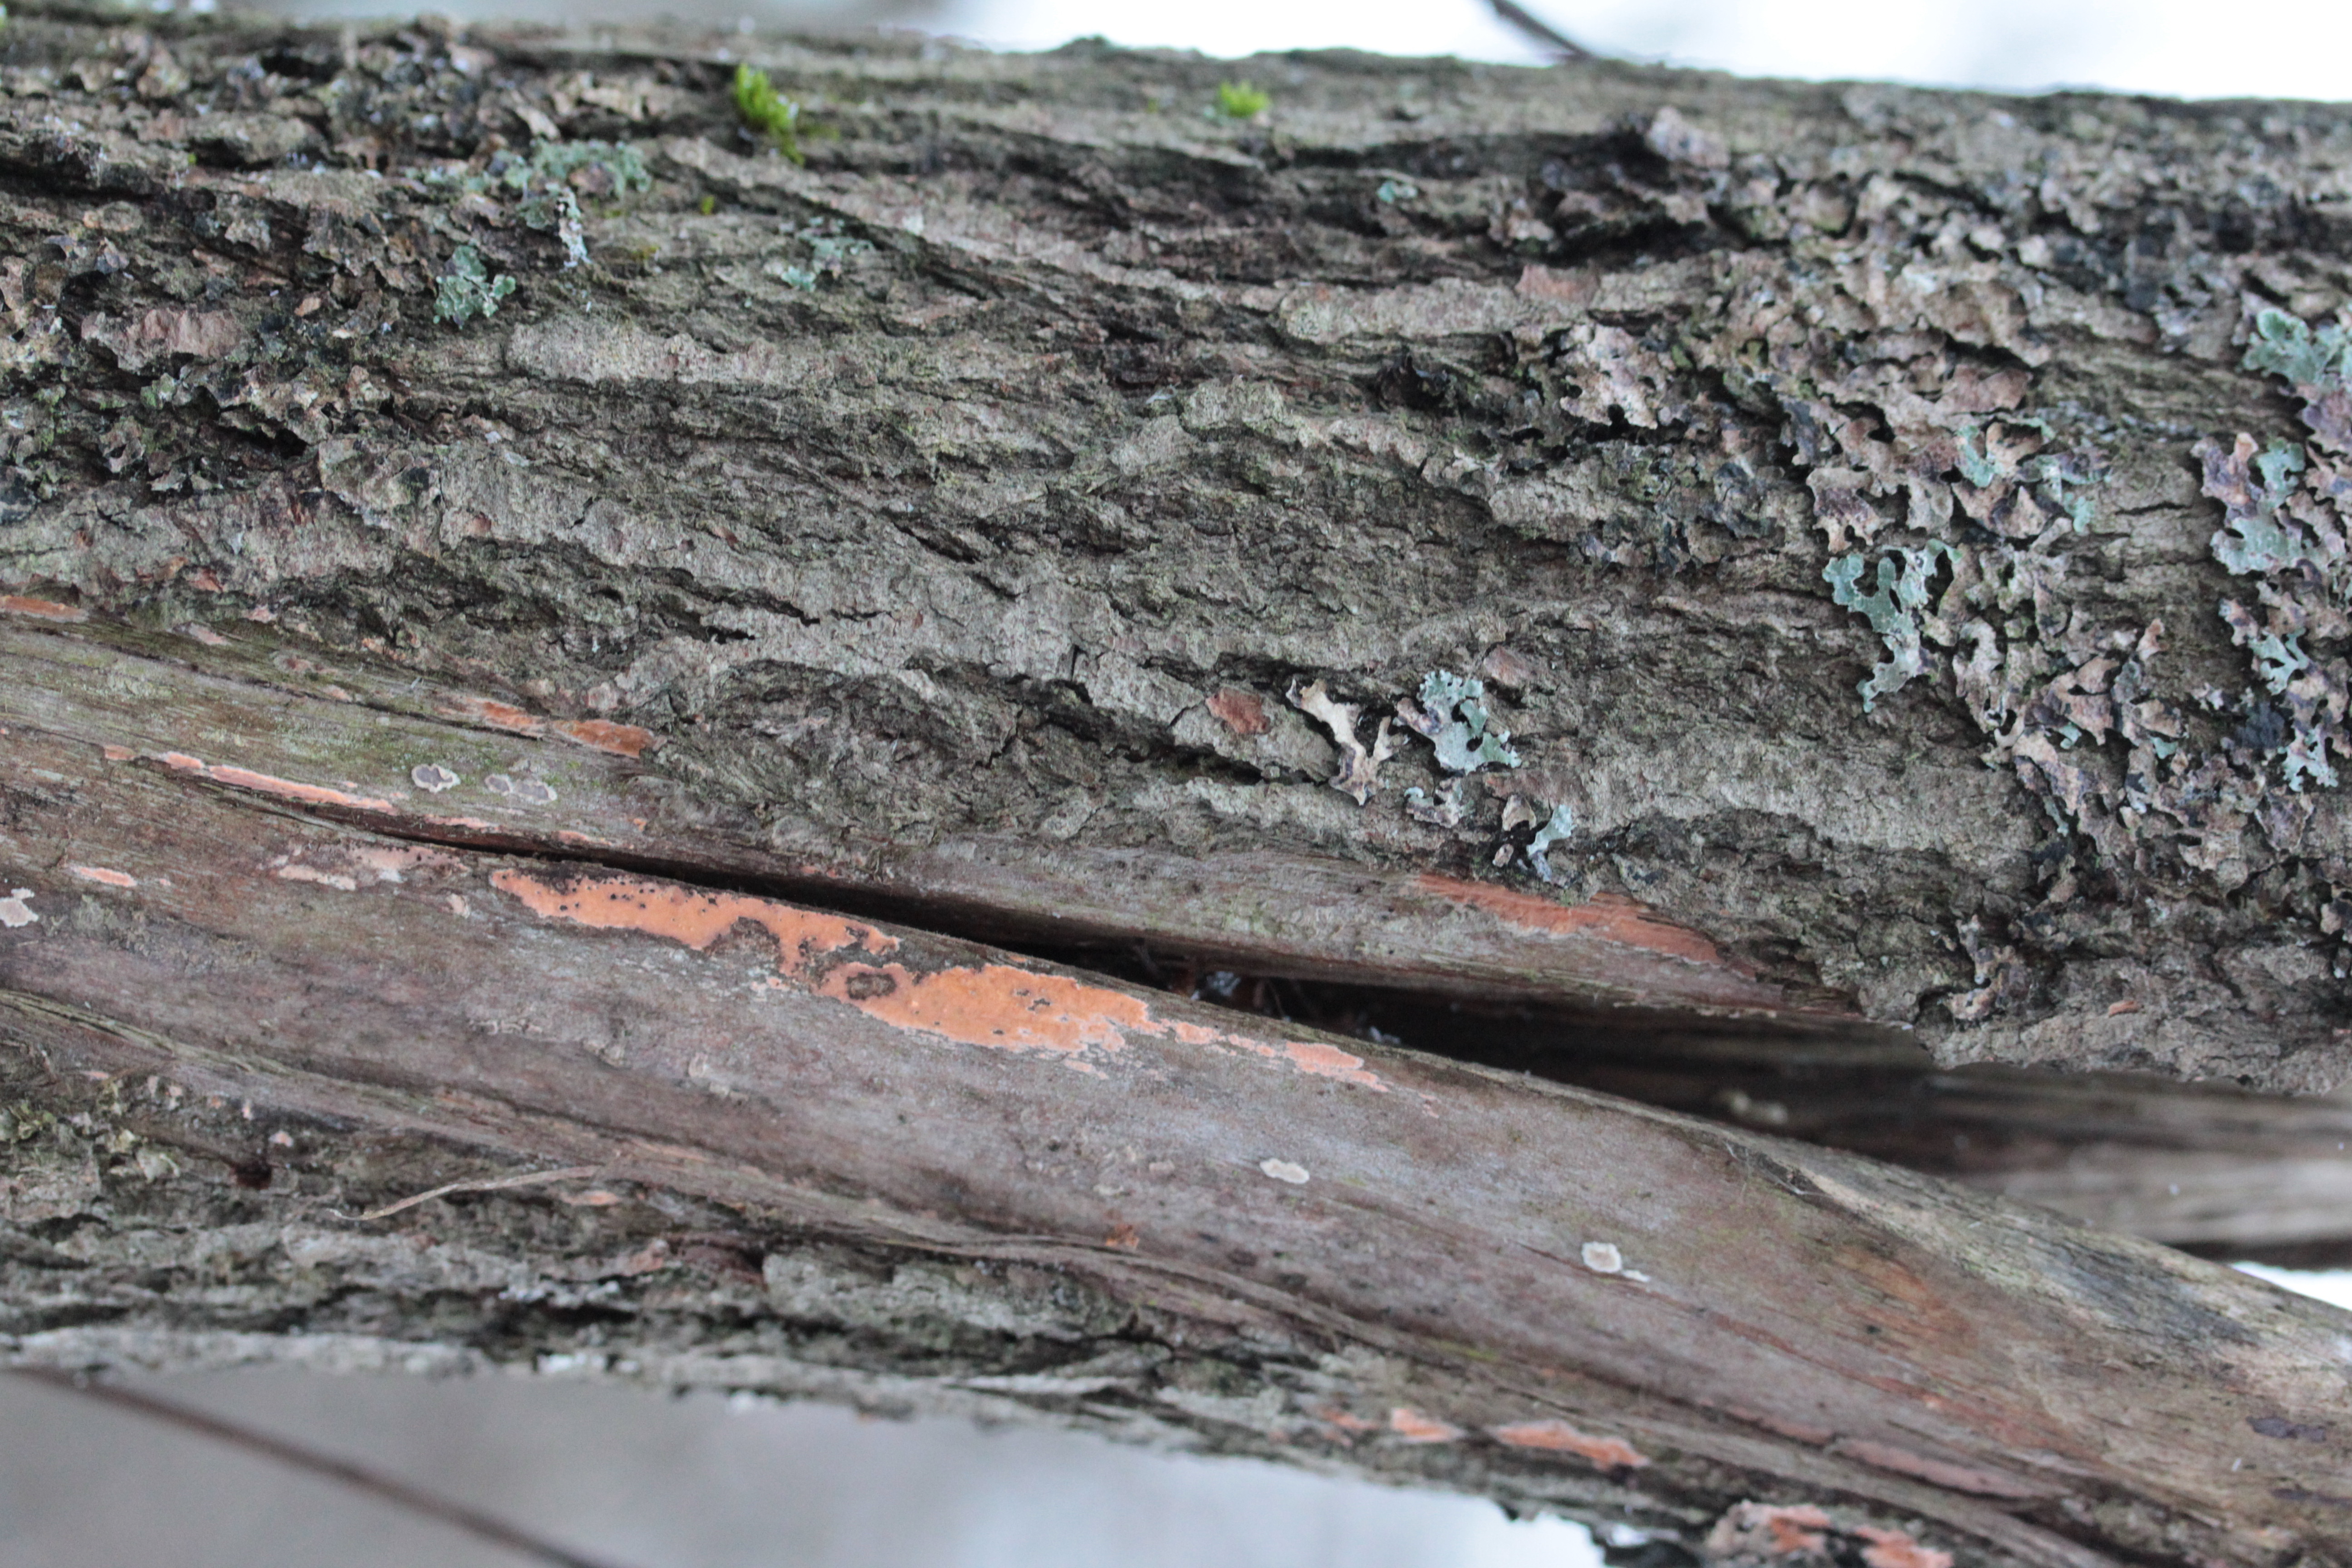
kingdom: Fungi
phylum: Basidiomycota
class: Agaricomycetes
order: Corticiales
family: Corticiaceae
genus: Corticium
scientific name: Corticium
